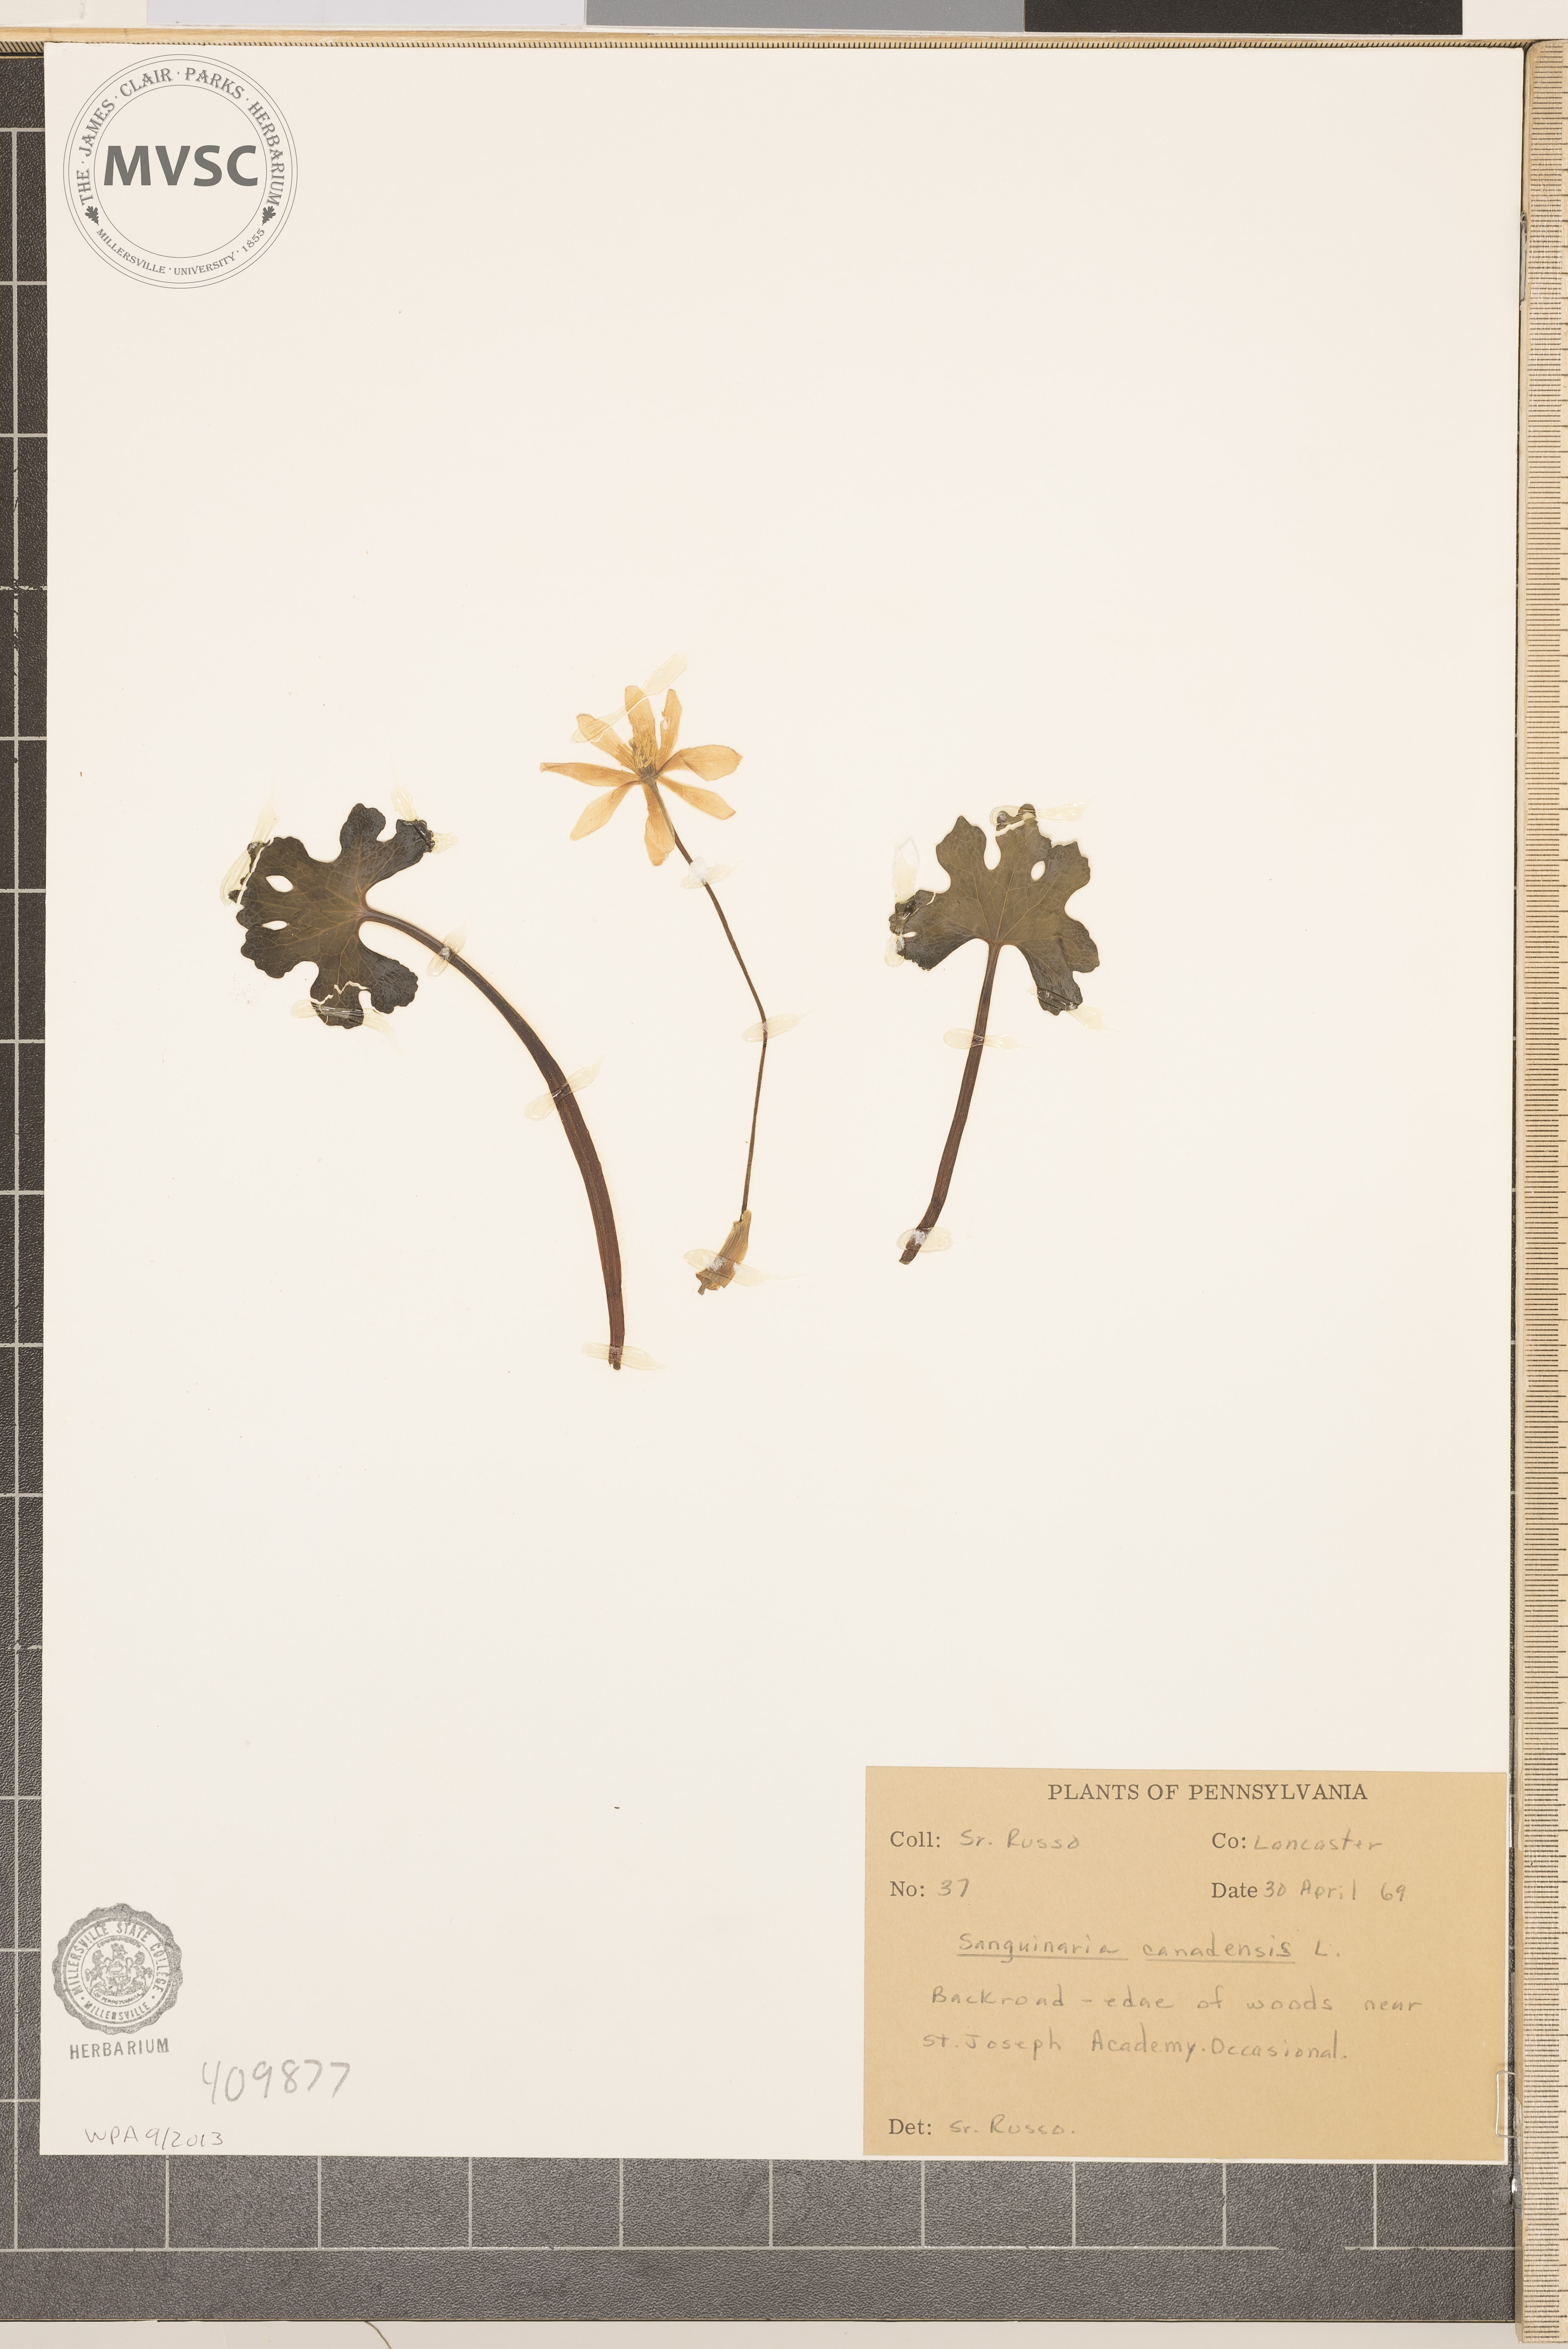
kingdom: Plantae
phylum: Tracheophyta
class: Magnoliopsida
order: Ranunculales
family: Papaveraceae
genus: Sanguinaria
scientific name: Sanguinaria canadensis
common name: Bloodroot
